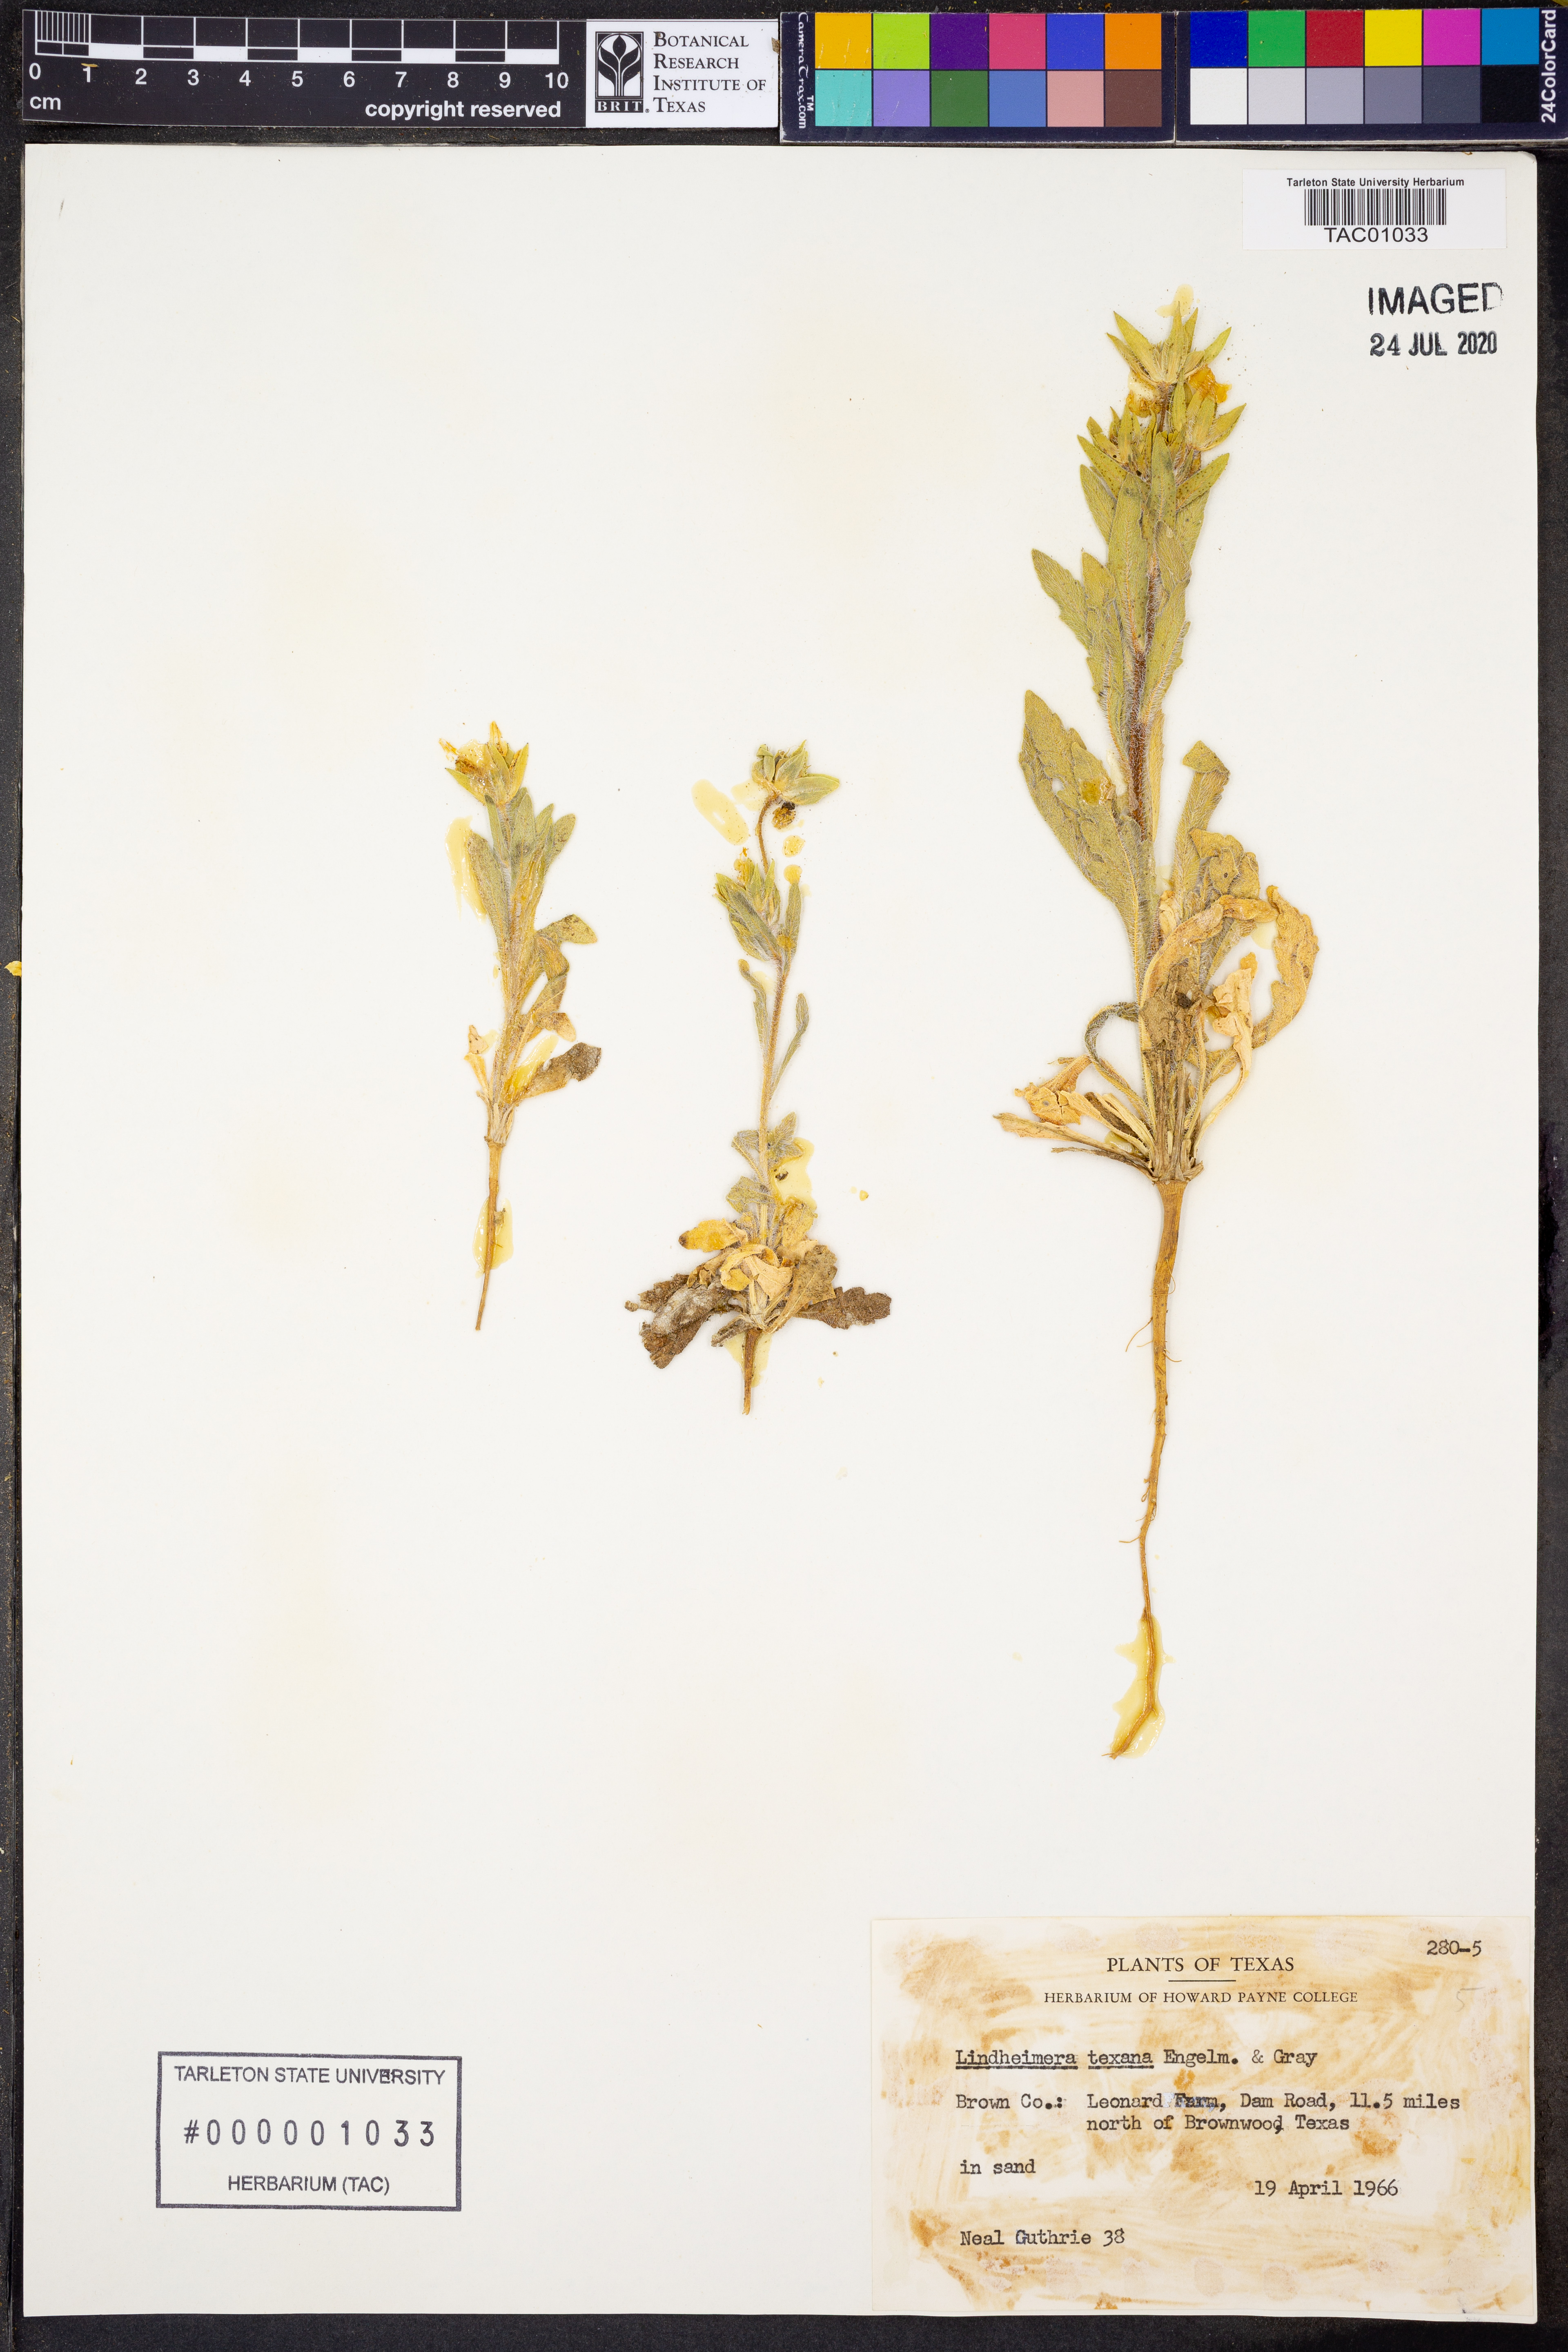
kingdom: Plantae
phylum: Tracheophyta
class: Magnoliopsida
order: Asterales
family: Asteraceae
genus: Lindheimera
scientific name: Lindheimera texana
